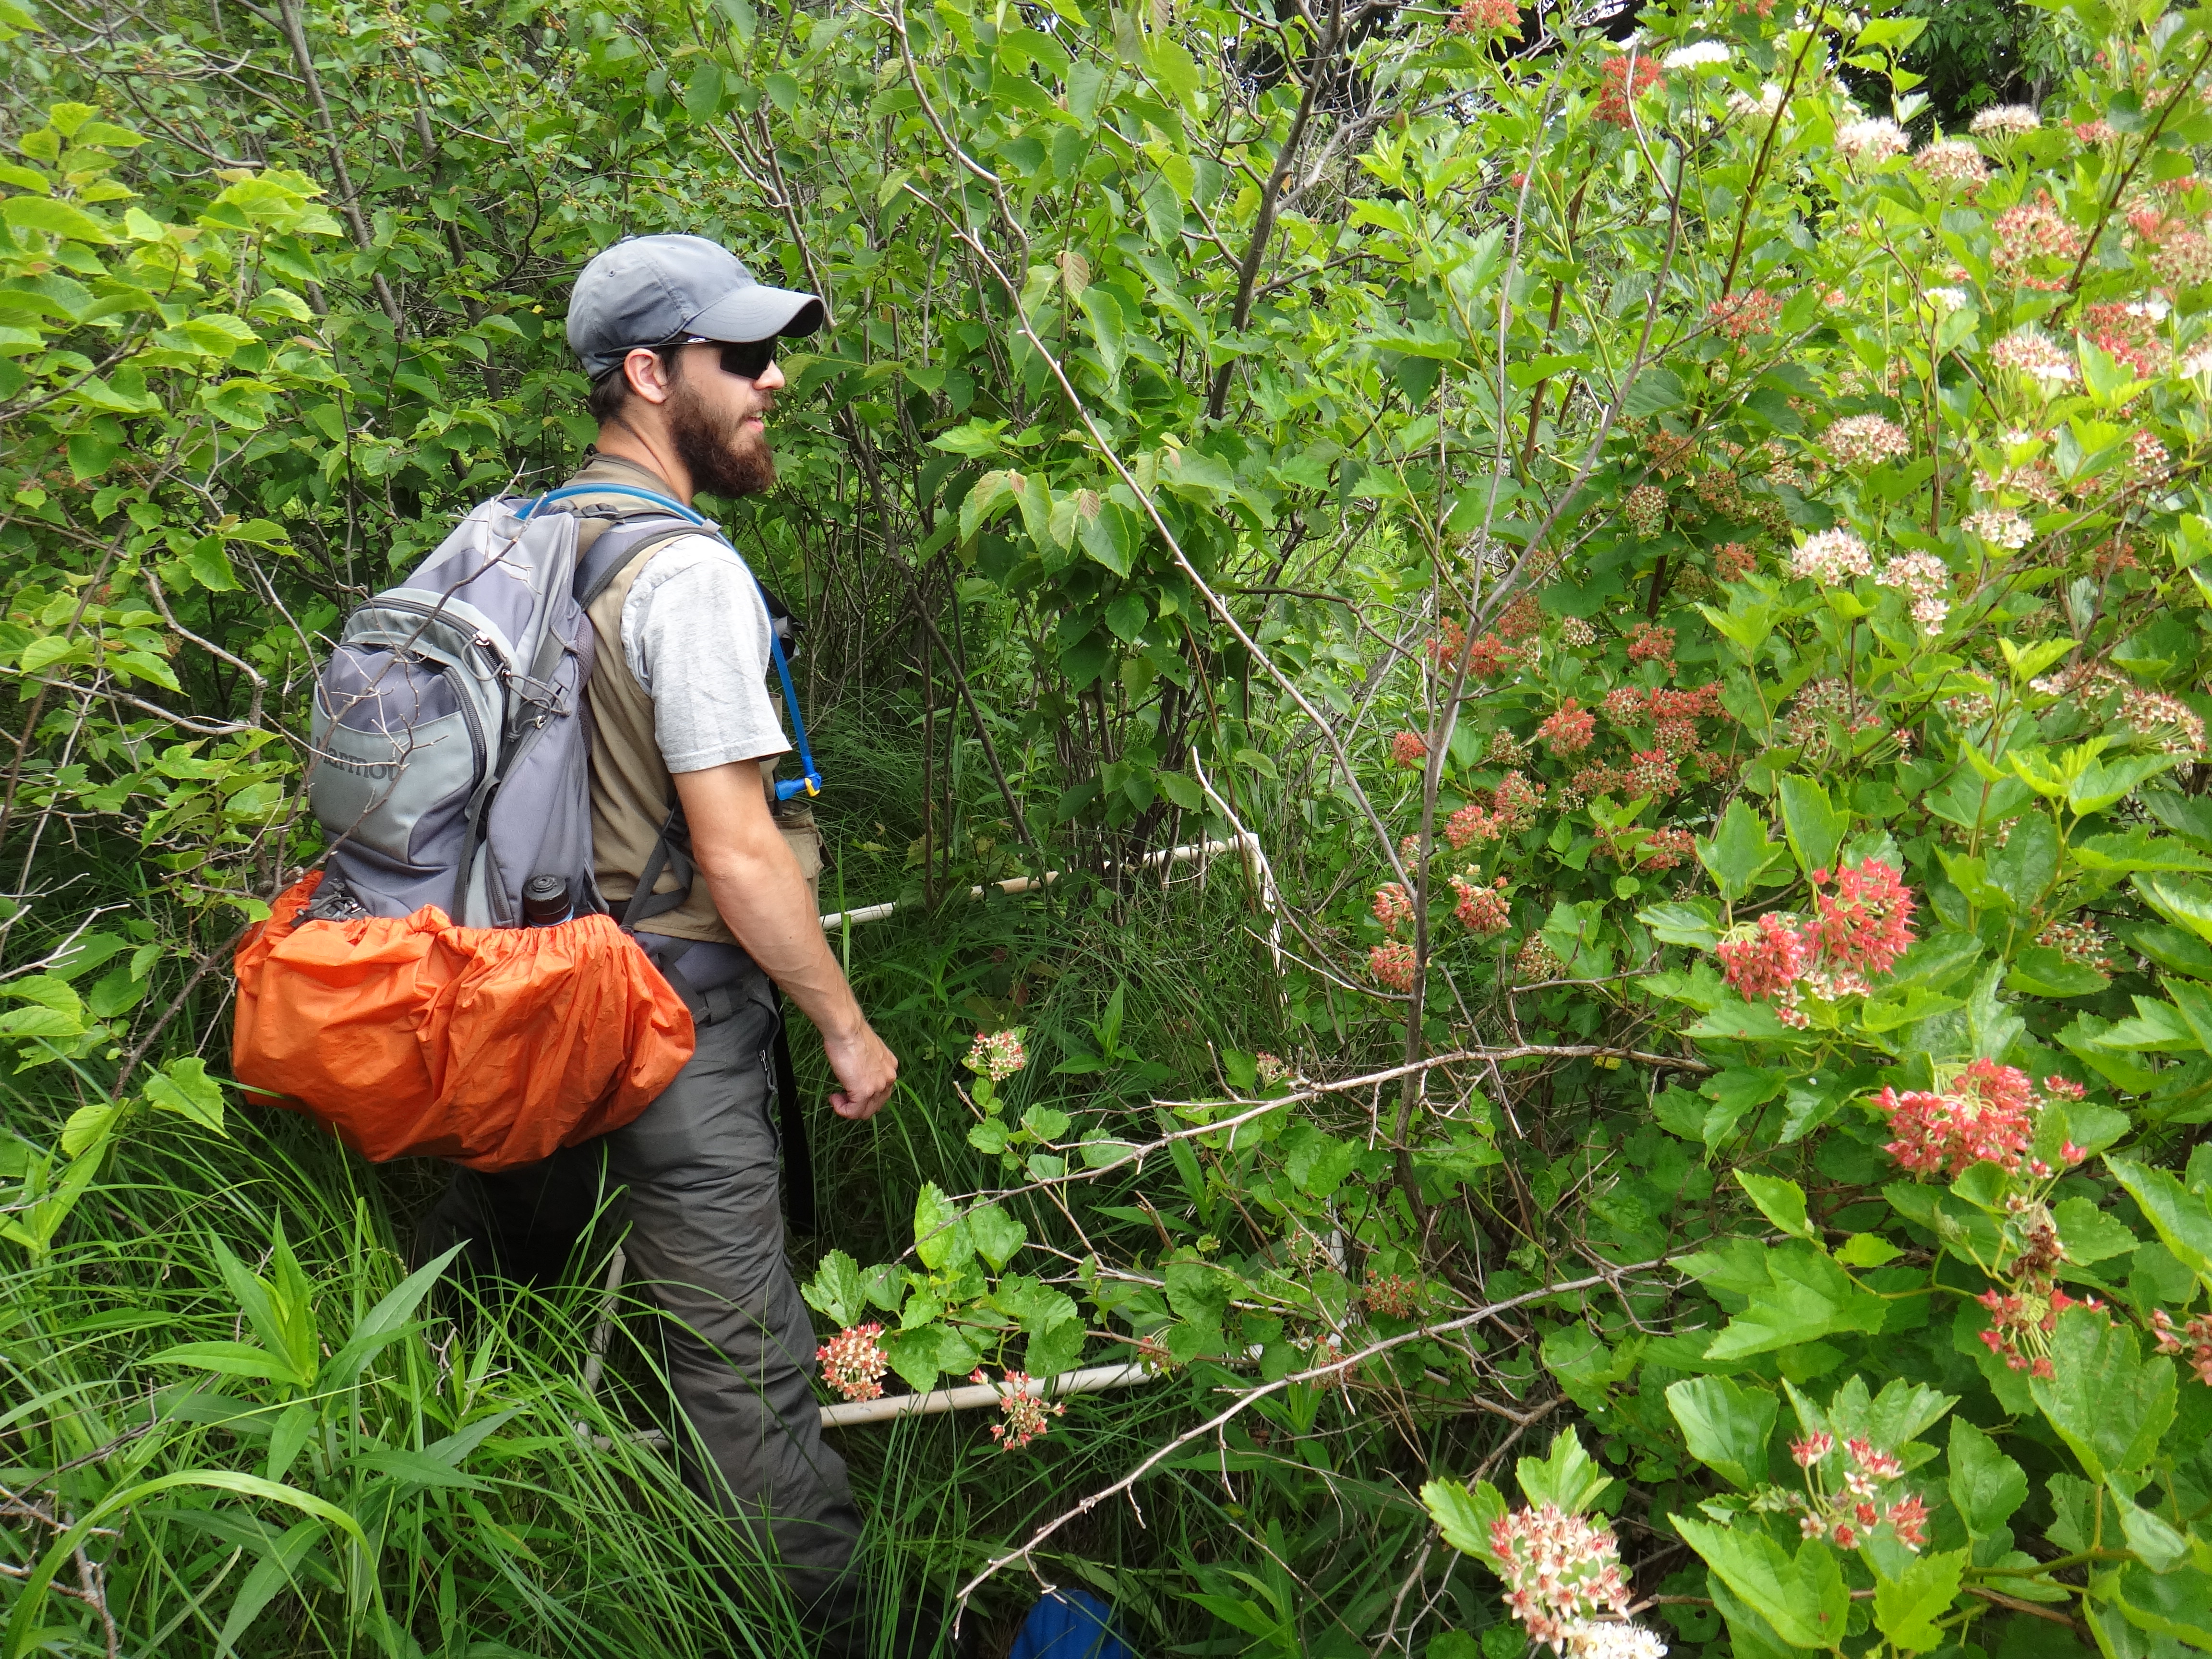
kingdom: Plantae
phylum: Tracheophyta
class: Magnoliopsida
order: Asterales
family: Asteraceae
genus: Cirsium
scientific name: Cirsium muticum
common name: Dunce-nettle
